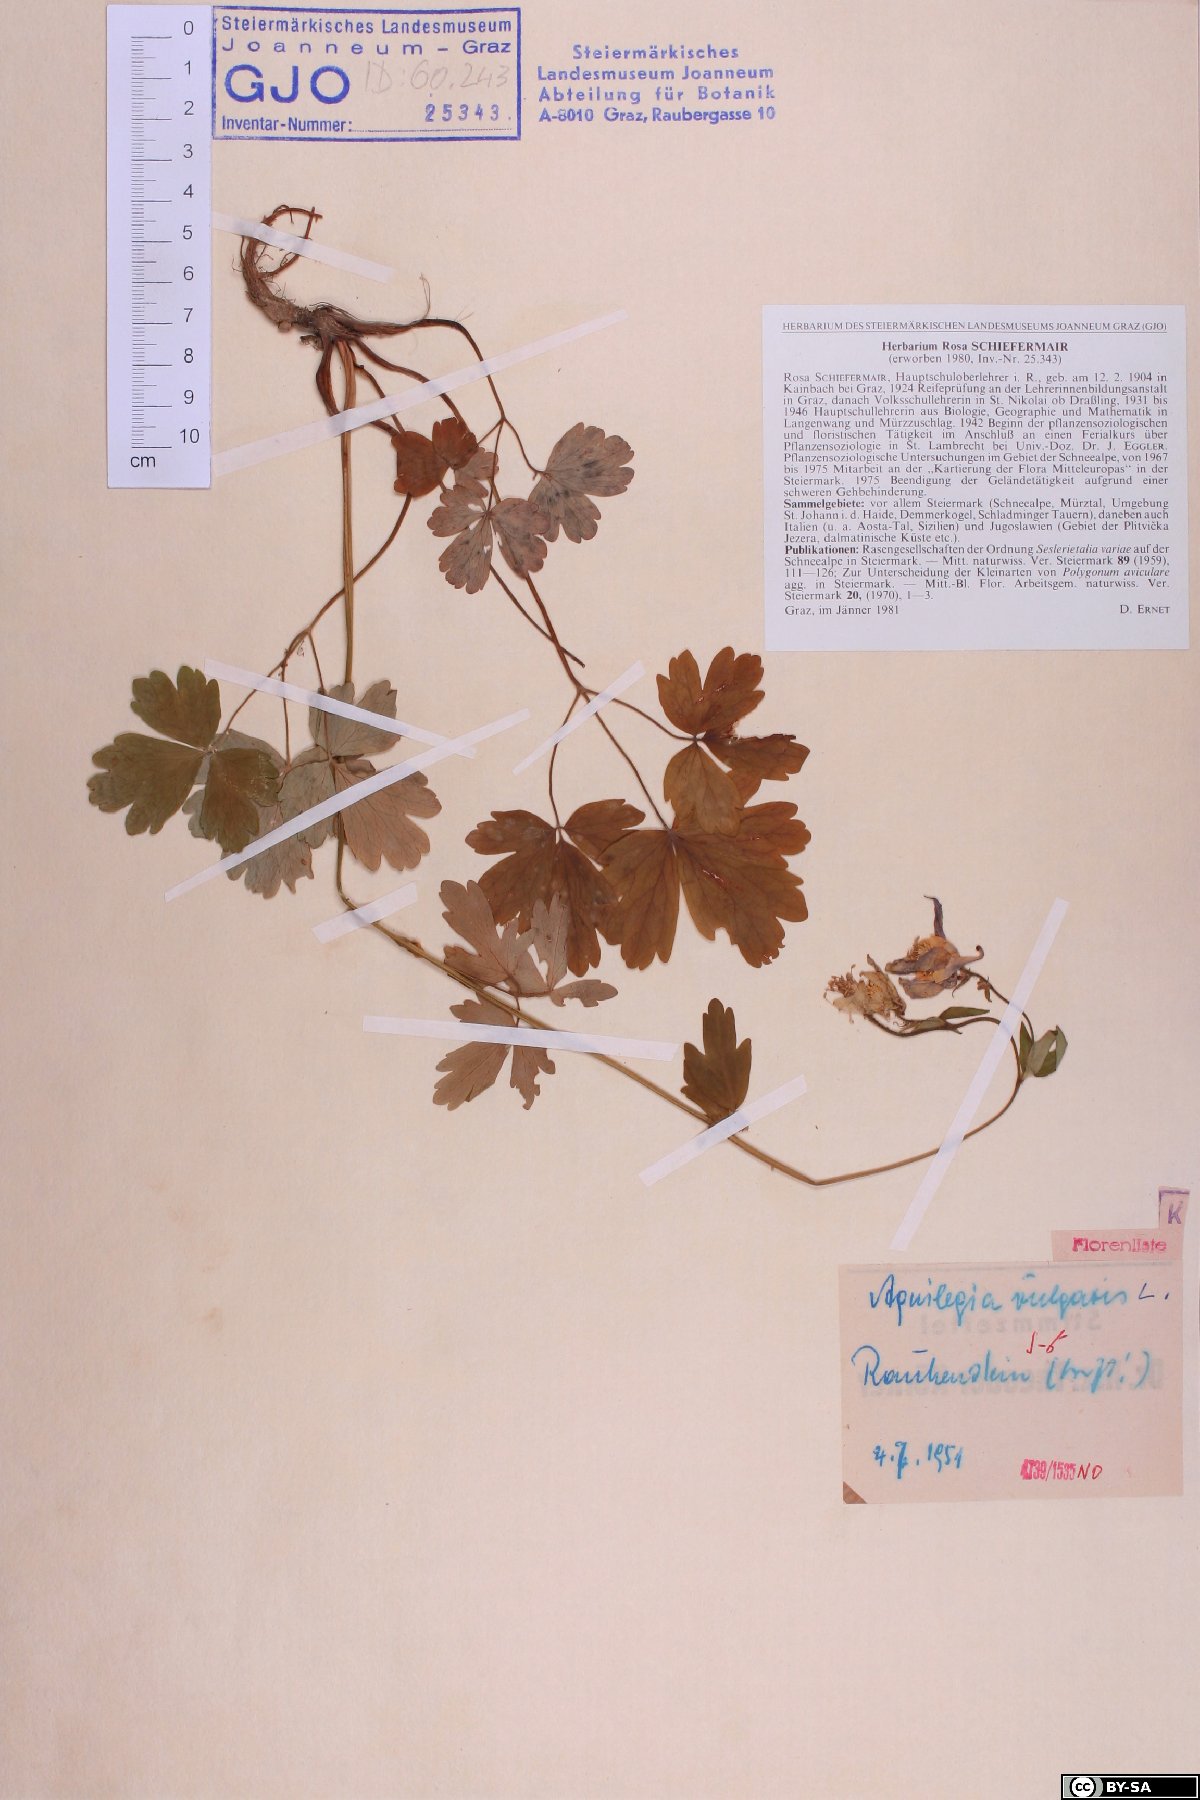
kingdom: Plantae
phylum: Tracheophyta
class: Magnoliopsida
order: Ranunculales
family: Ranunculaceae
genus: Aquilegia
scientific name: Aquilegia vulgaris
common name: Columbine
